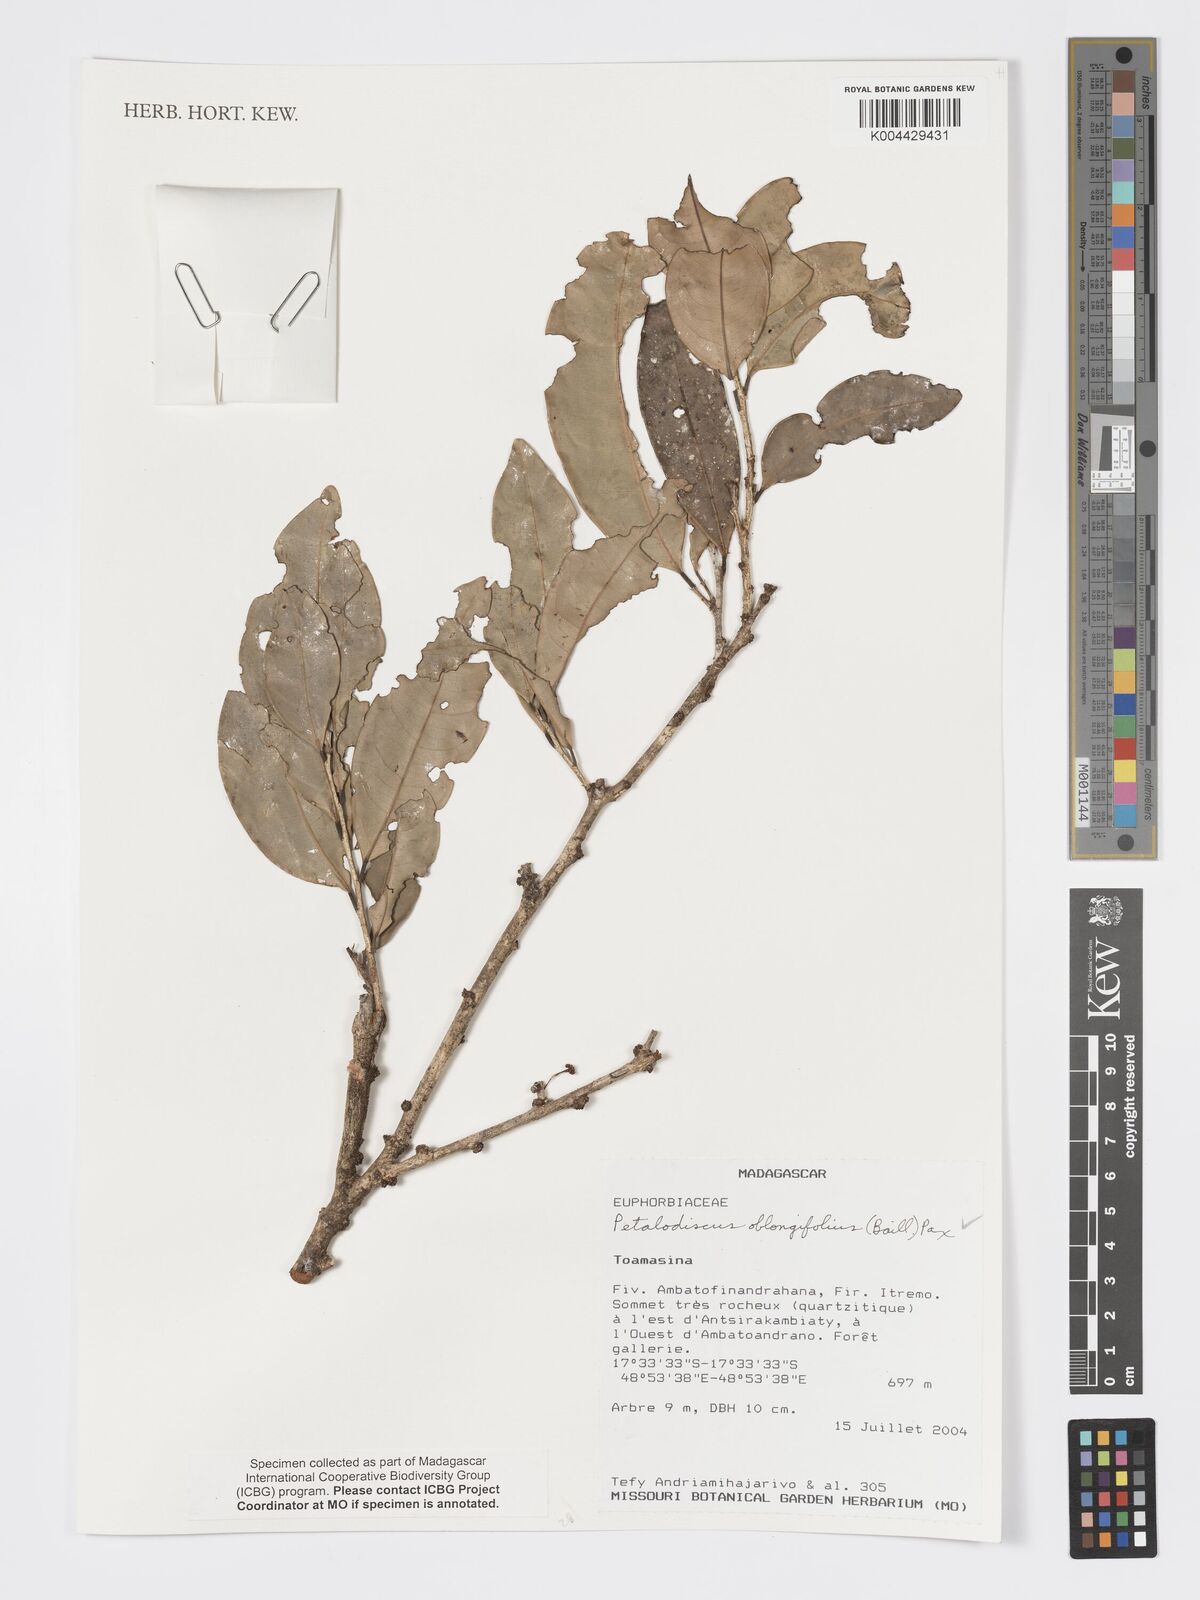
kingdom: Plantae
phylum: Tracheophyta
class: Magnoliopsida
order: Malpighiales
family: Phyllanthaceae
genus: Wielandia
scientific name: Wielandia oblongifolia
